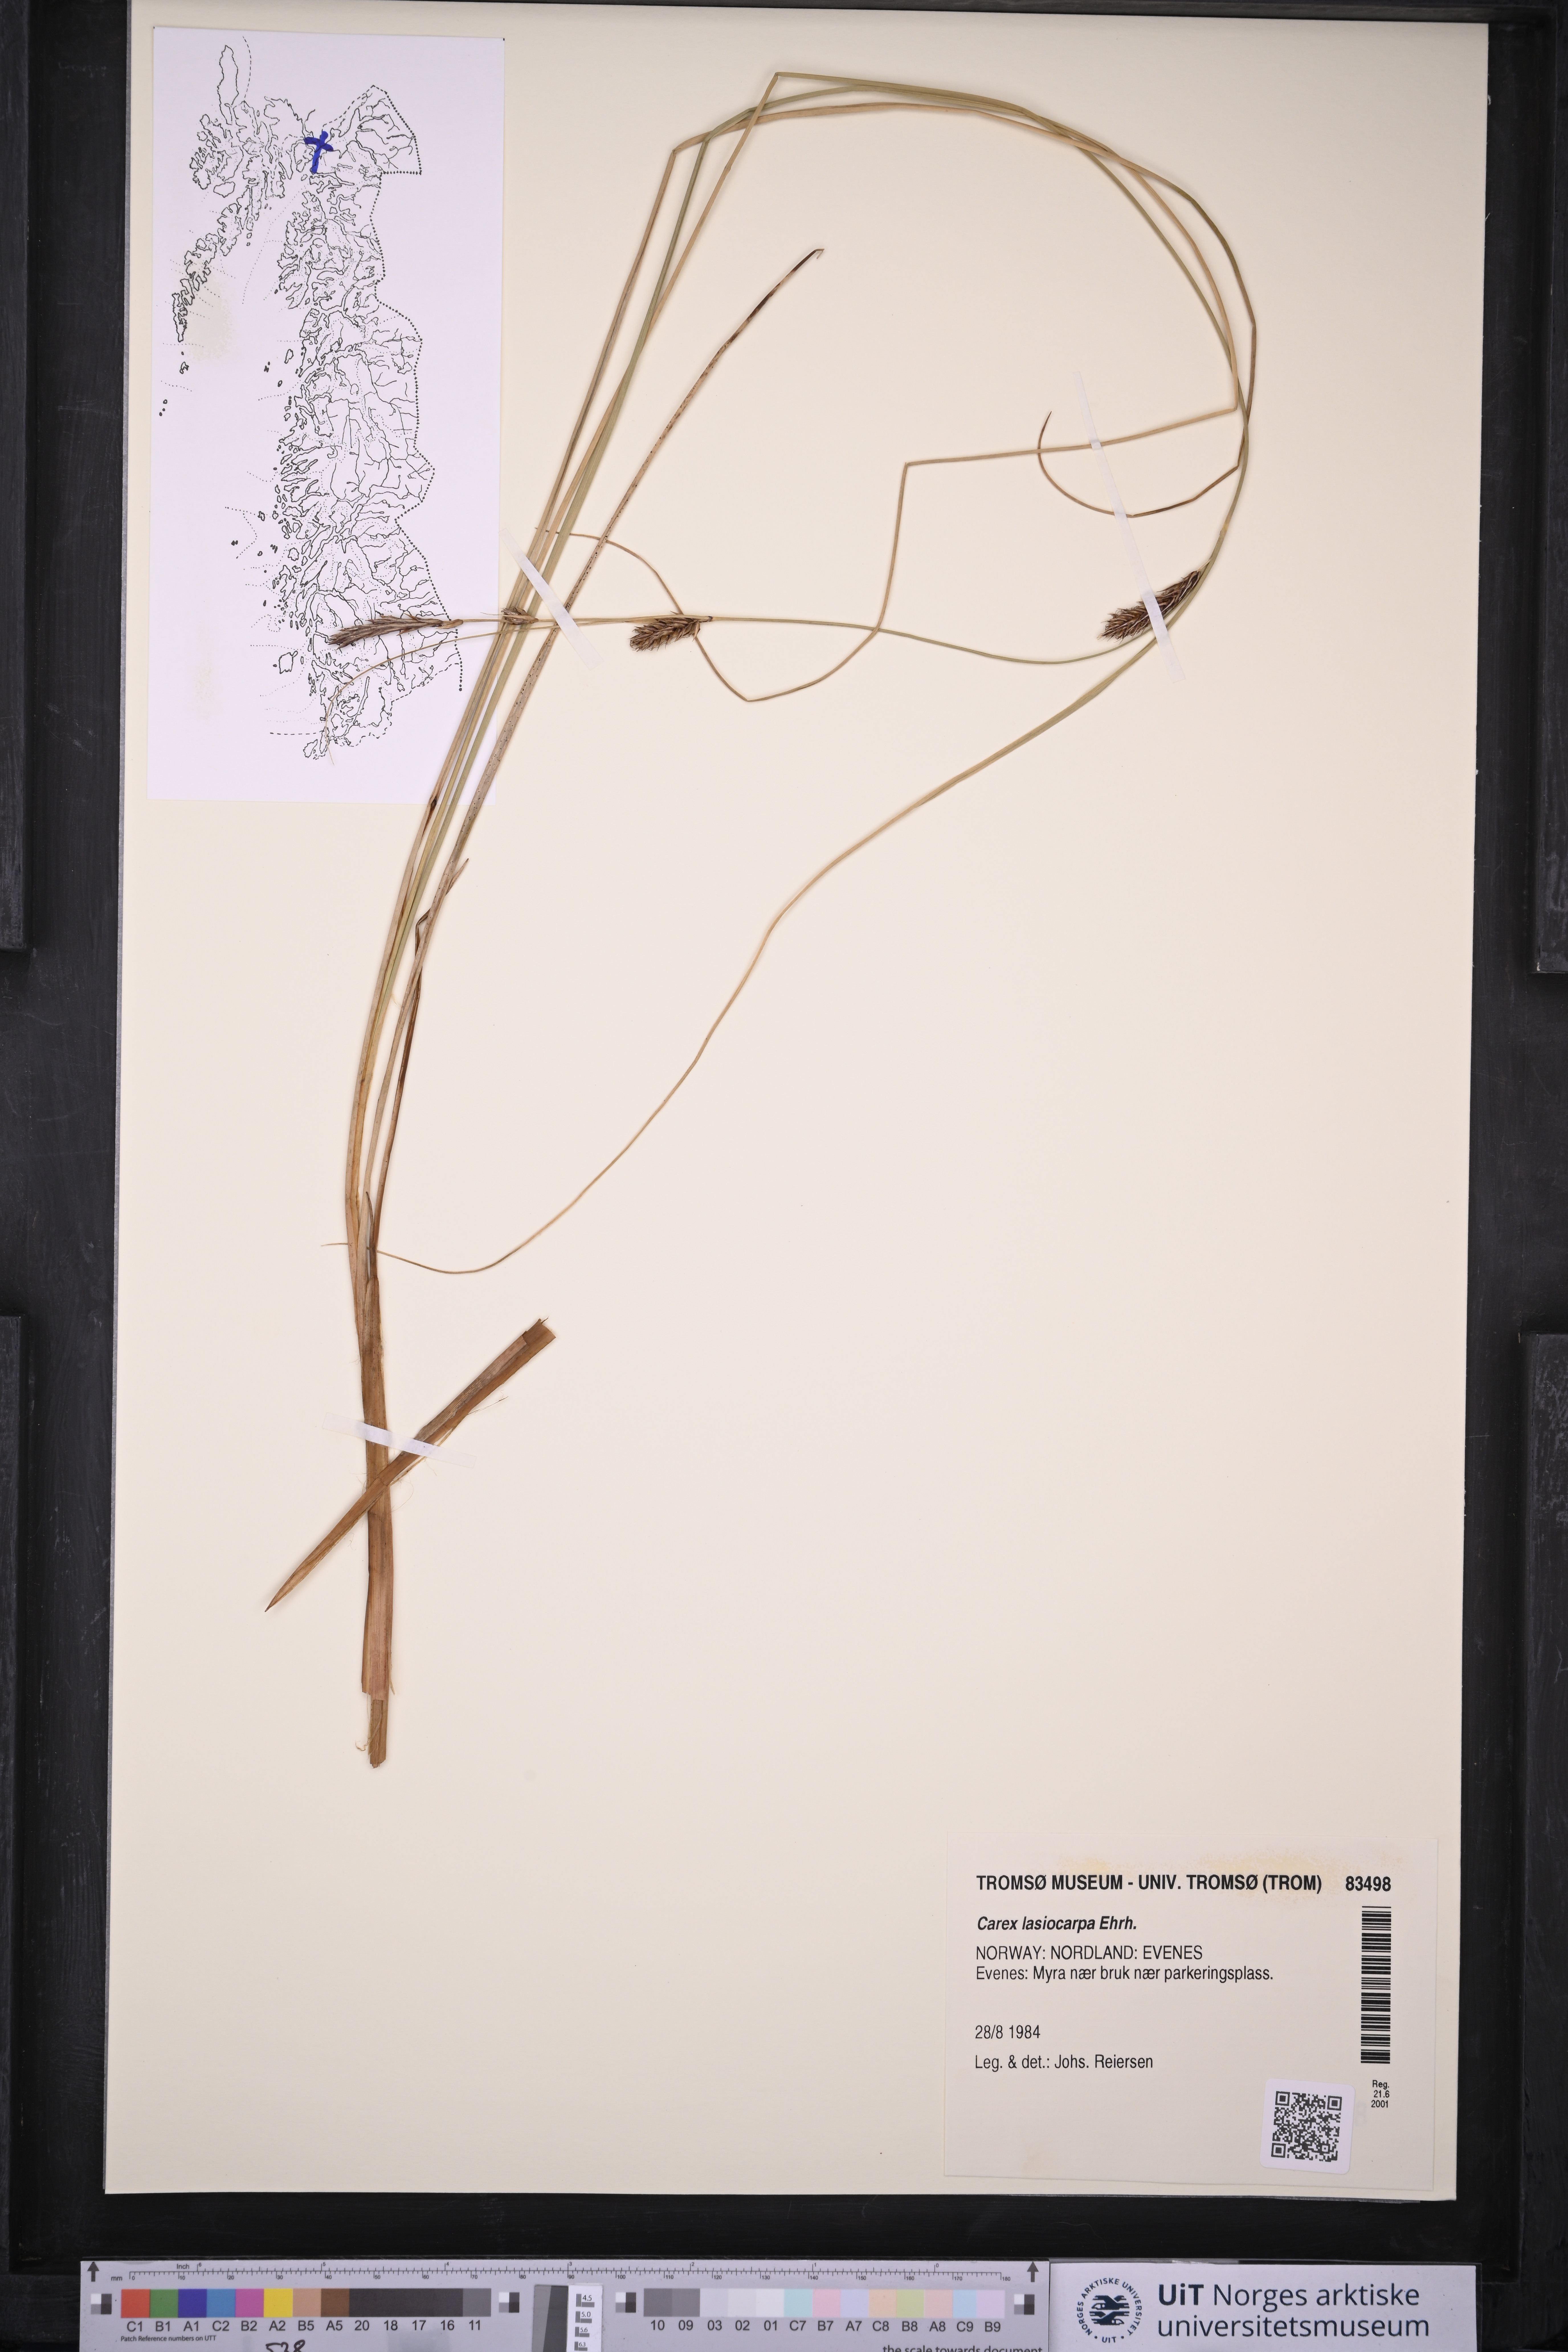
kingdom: Plantae
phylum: Tracheophyta
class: Liliopsida
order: Poales
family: Cyperaceae
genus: Carex
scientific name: Carex lasiocarpa
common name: Slender sedge
